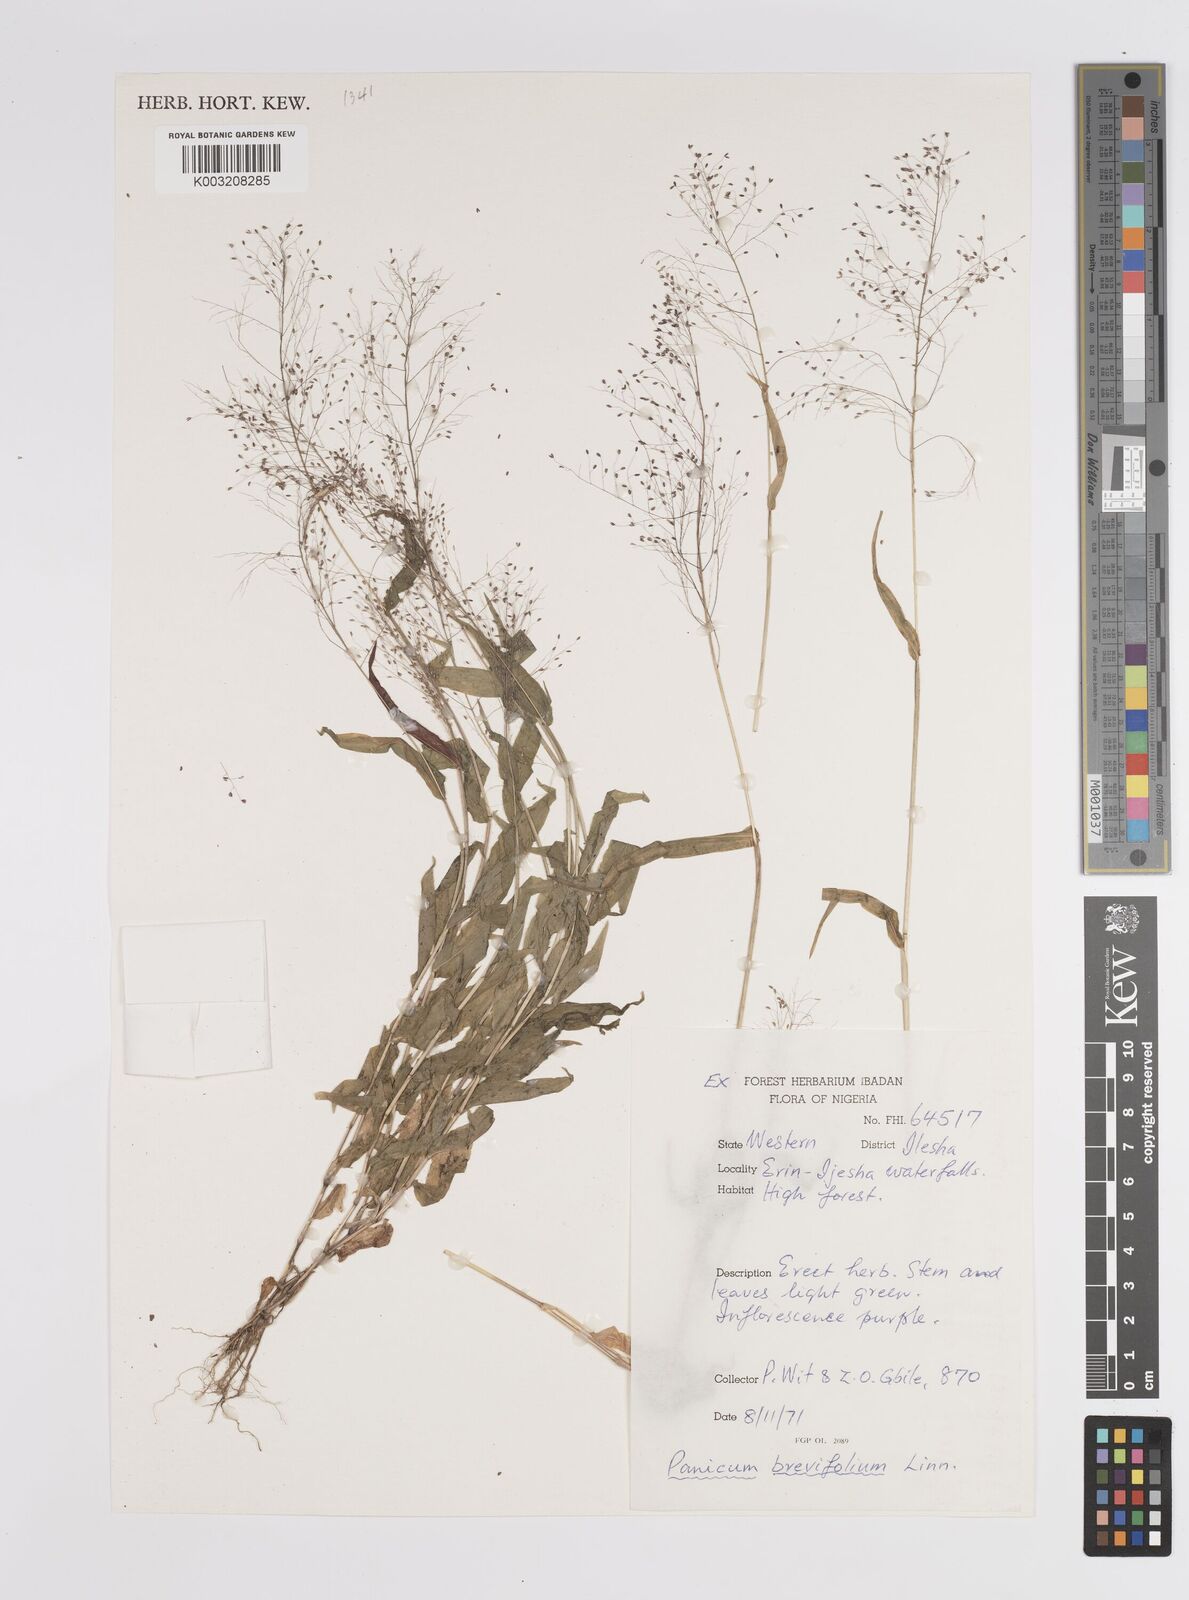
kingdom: Plantae
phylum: Tracheophyta
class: Liliopsida
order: Poales
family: Poaceae
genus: Panicum
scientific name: Panicum brevifolium
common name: Shortleaf panic grass
